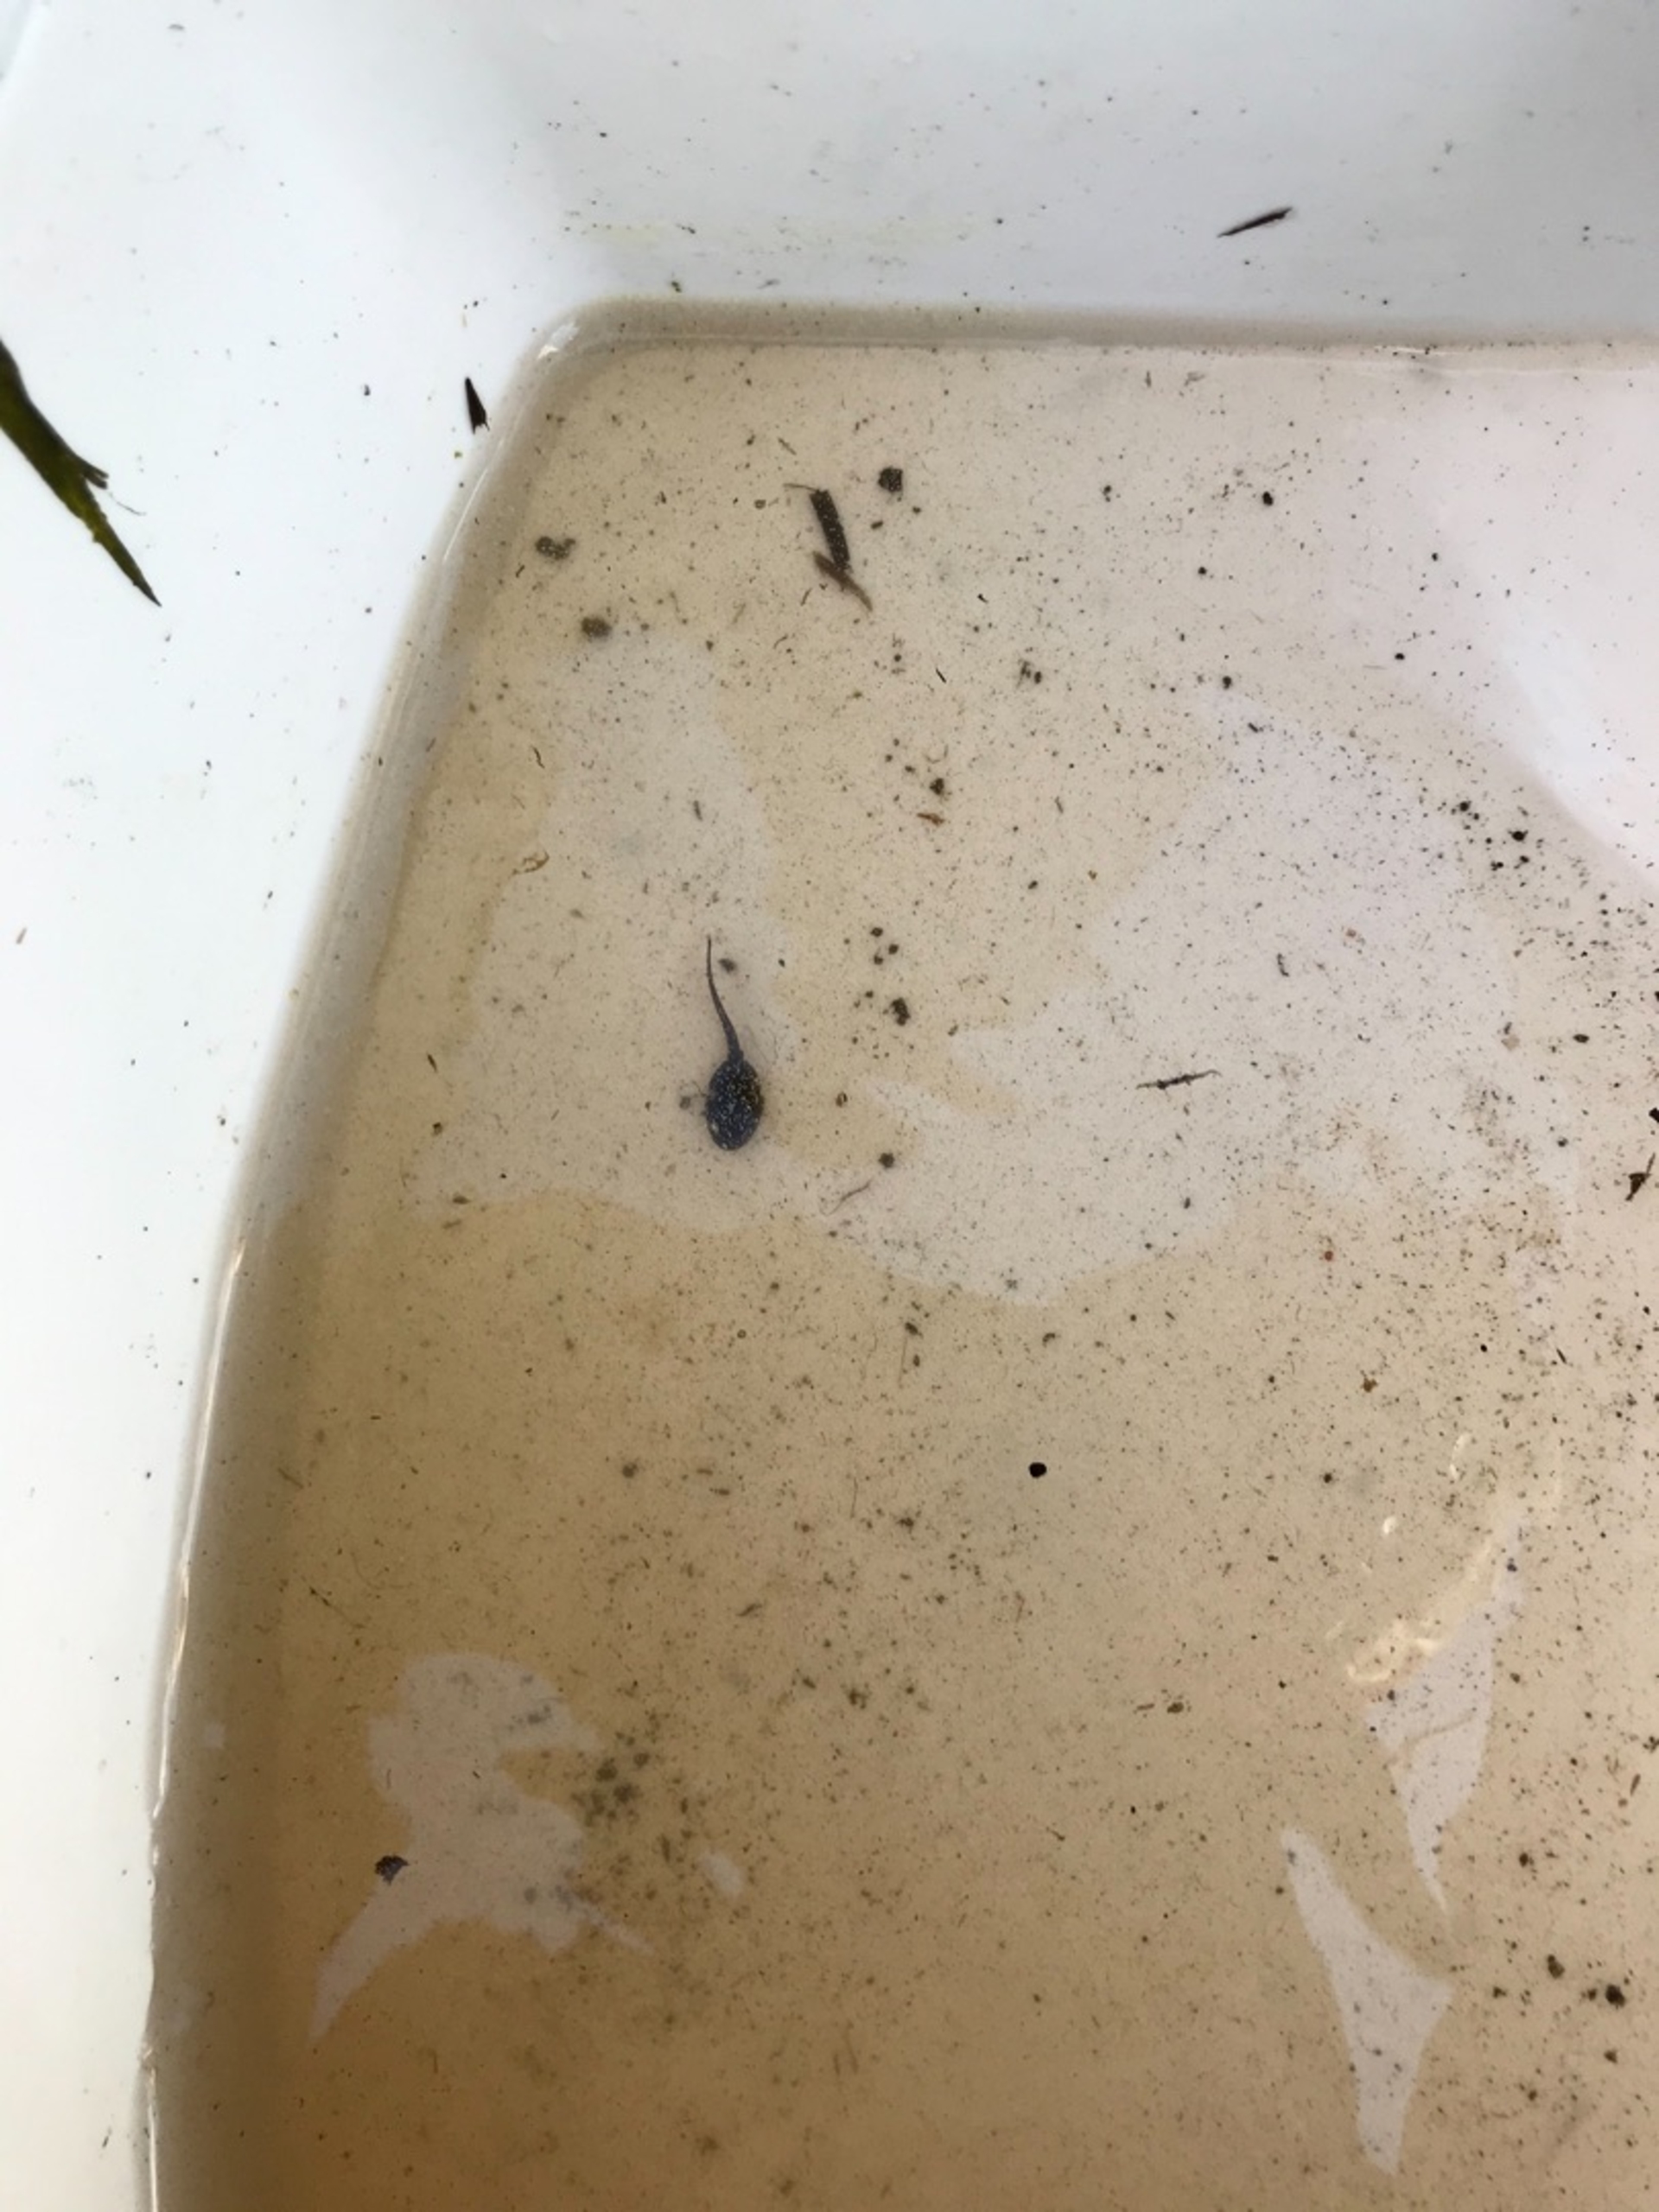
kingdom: Animalia
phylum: Chordata
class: Amphibia
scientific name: Amphibia
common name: Padder
